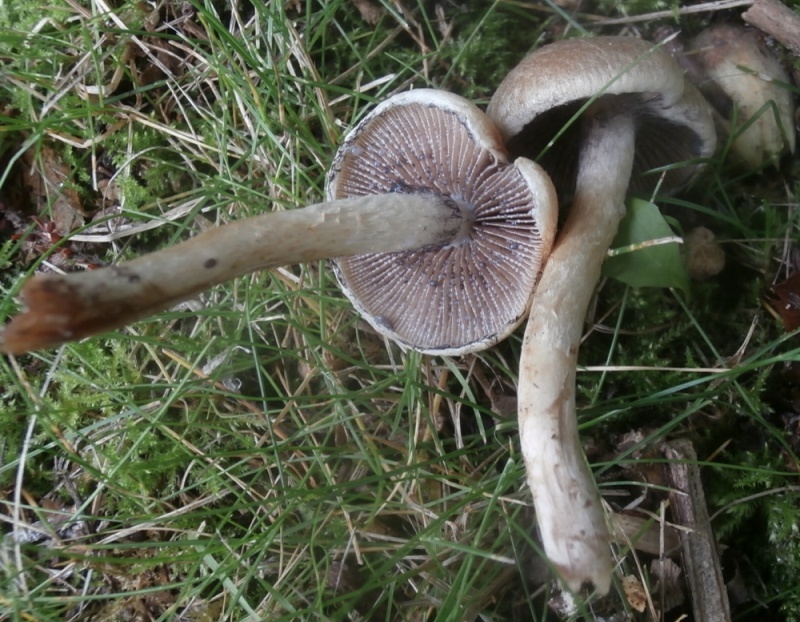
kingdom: Fungi
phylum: Basidiomycota
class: Agaricomycetes
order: Agaricales
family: Psathyrellaceae
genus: Lacrymaria
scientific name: Lacrymaria pyrotricha
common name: ildhåret mørkhat
